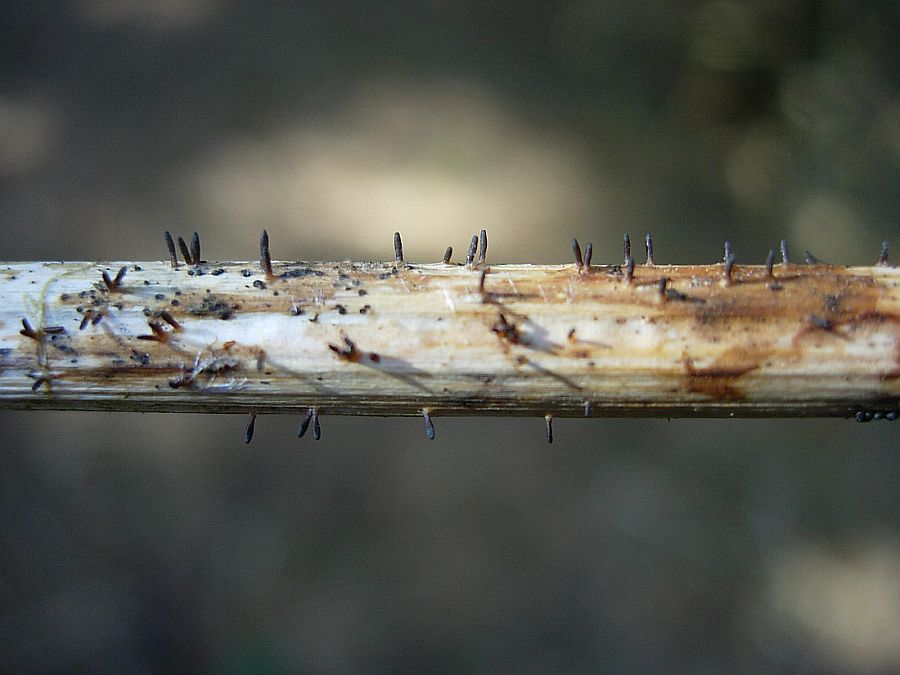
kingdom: Fungi
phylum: Ascomycota
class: Dothideomycetes
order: Acrospermales
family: Acrospermaceae
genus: Acrospermum
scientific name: Acrospermum compressum
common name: nælde-stængeltunge
